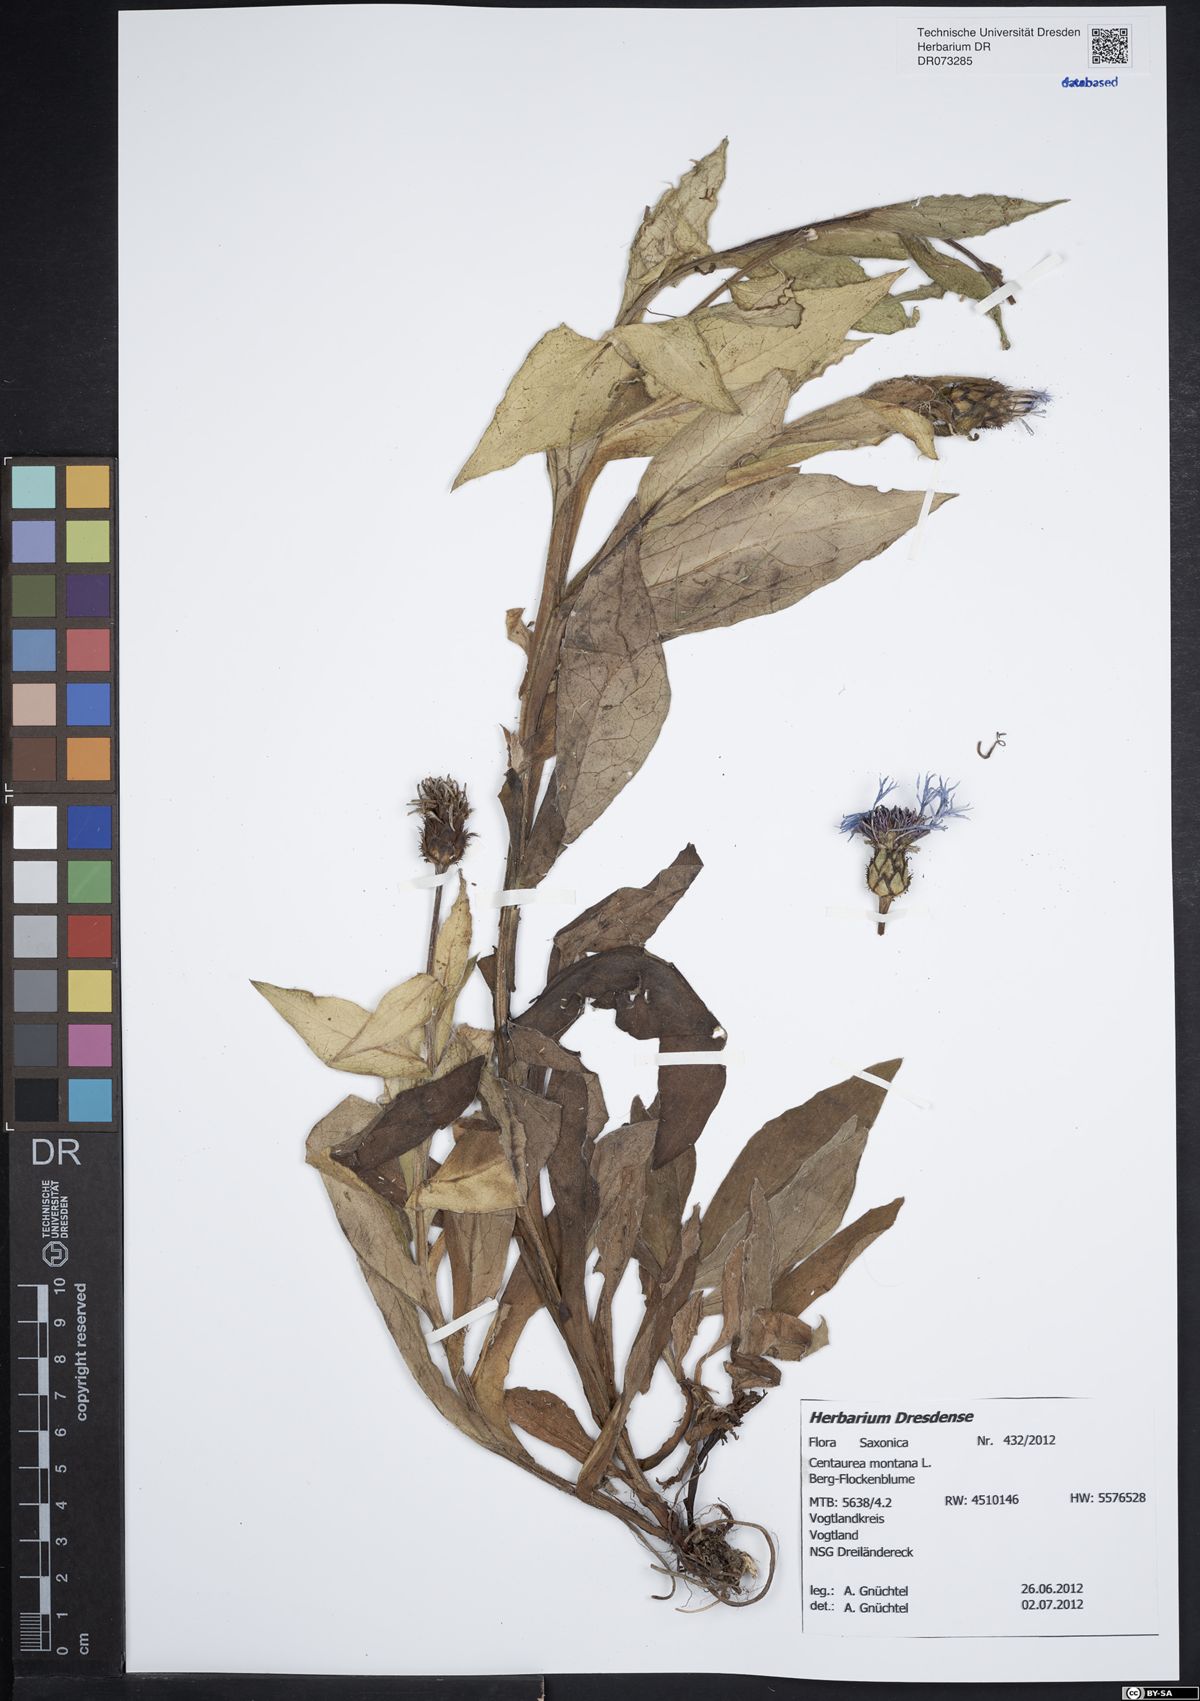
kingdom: Plantae
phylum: Tracheophyta
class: Magnoliopsida
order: Asterales
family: Asteraceae
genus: Centaurea
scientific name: Centaurea montana
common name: Perennial cornflower
